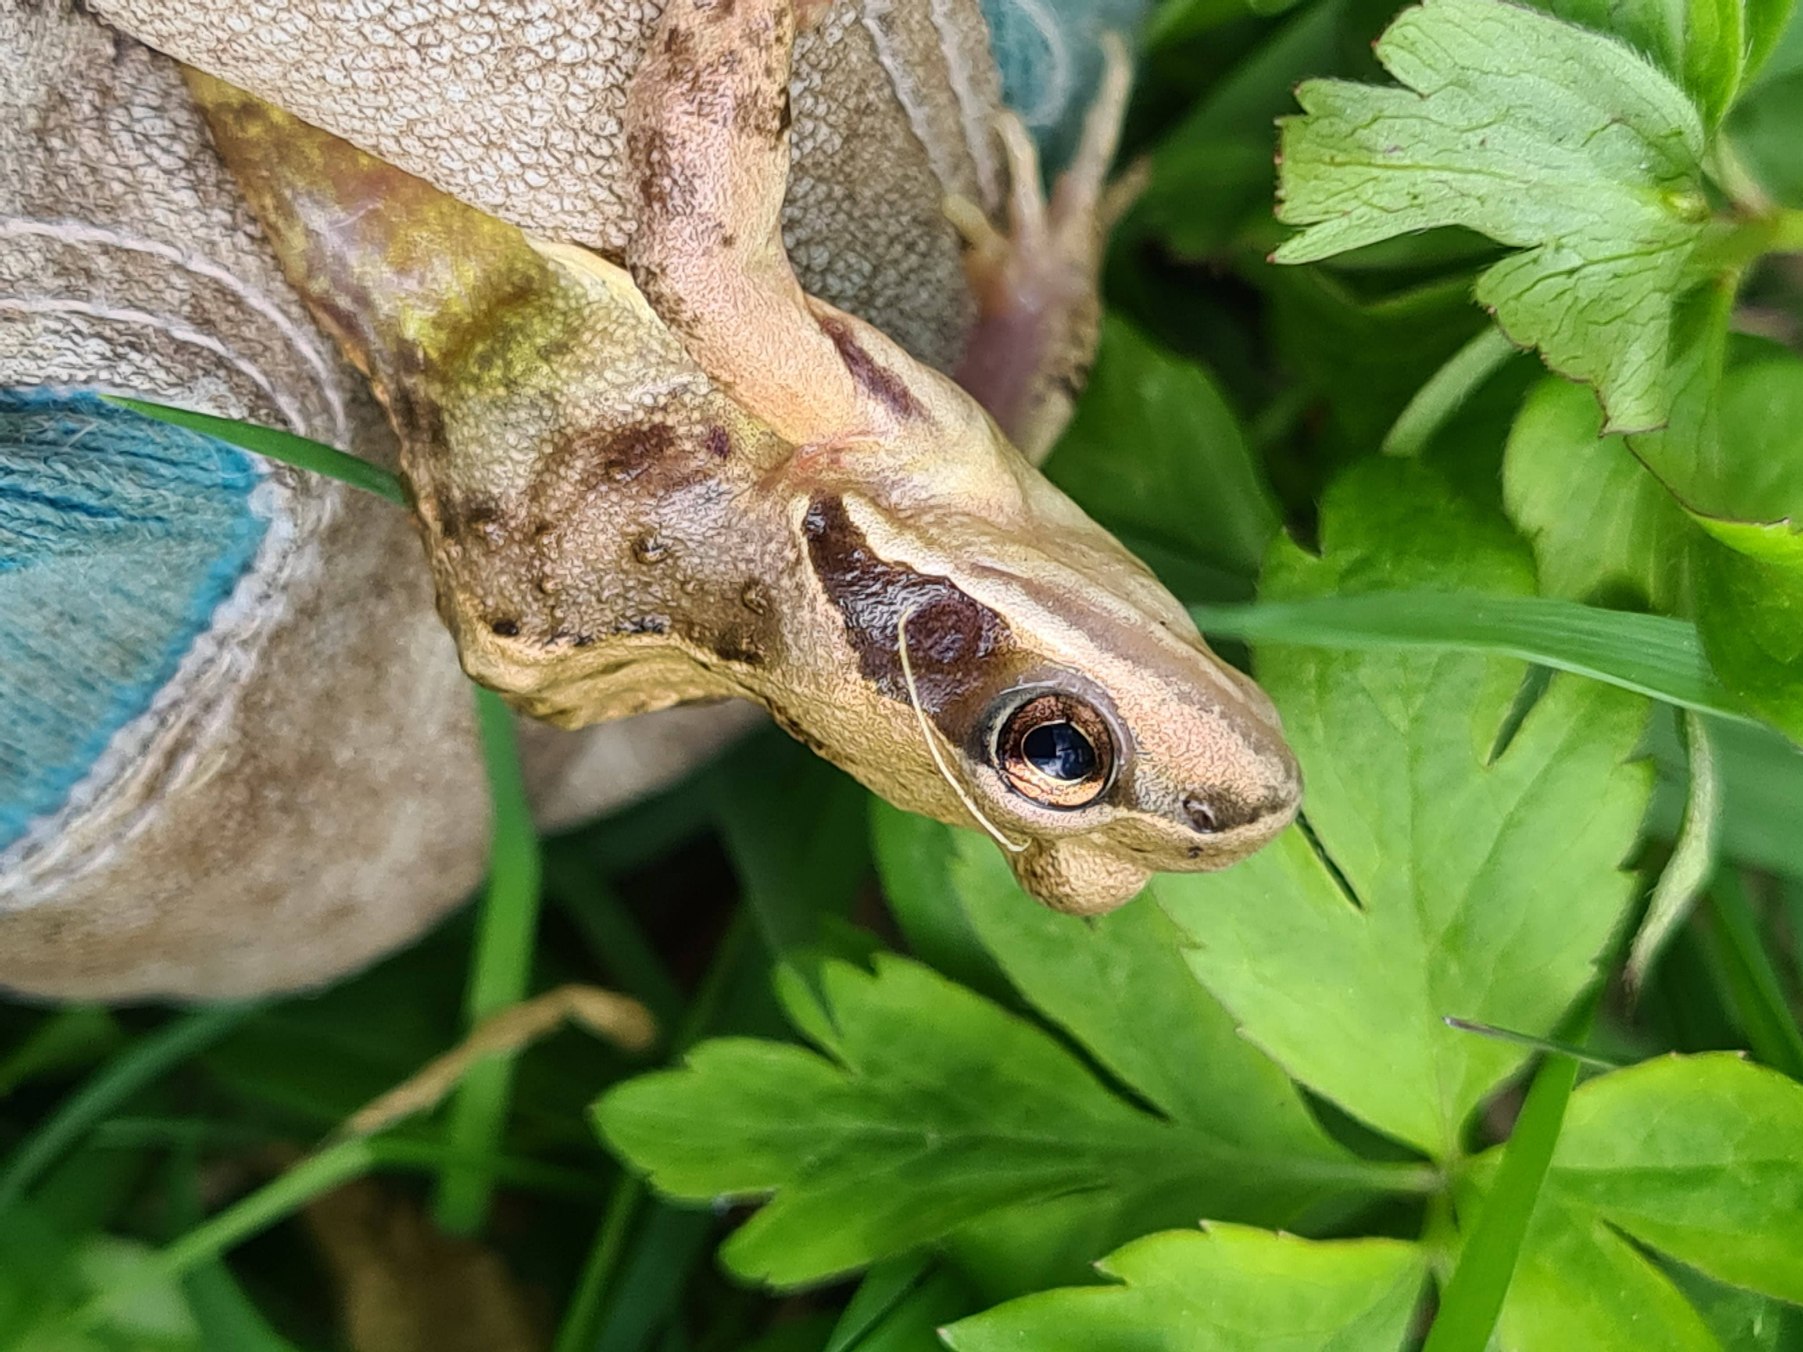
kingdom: Animalia
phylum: Chordata
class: Amphibia
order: Anura
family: Ranidae
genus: Rana
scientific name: Rana temporaria
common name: Butsnudet frø
